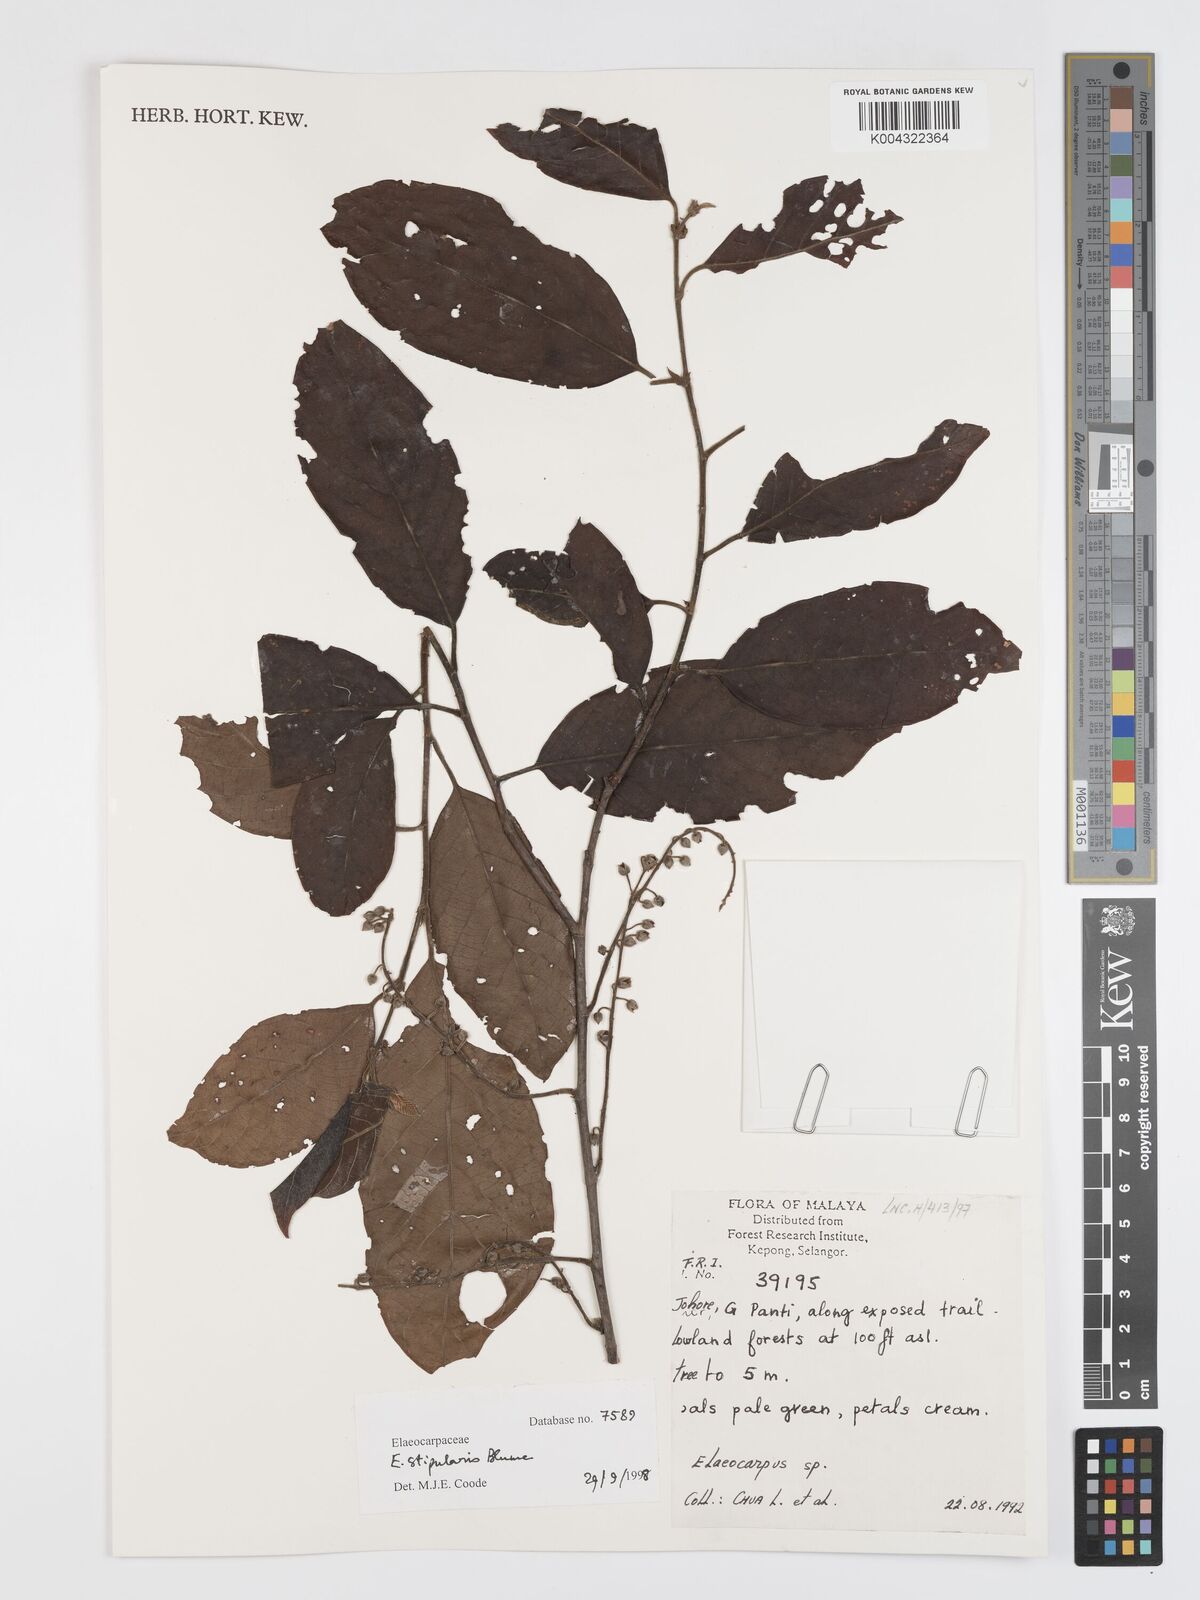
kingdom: Plantae
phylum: Tracheophyta
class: Magnoliopsida
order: Oxalidales
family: Elaeocarpaceae
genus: Elaeocarpus
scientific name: Elaeocarpus stipularis
